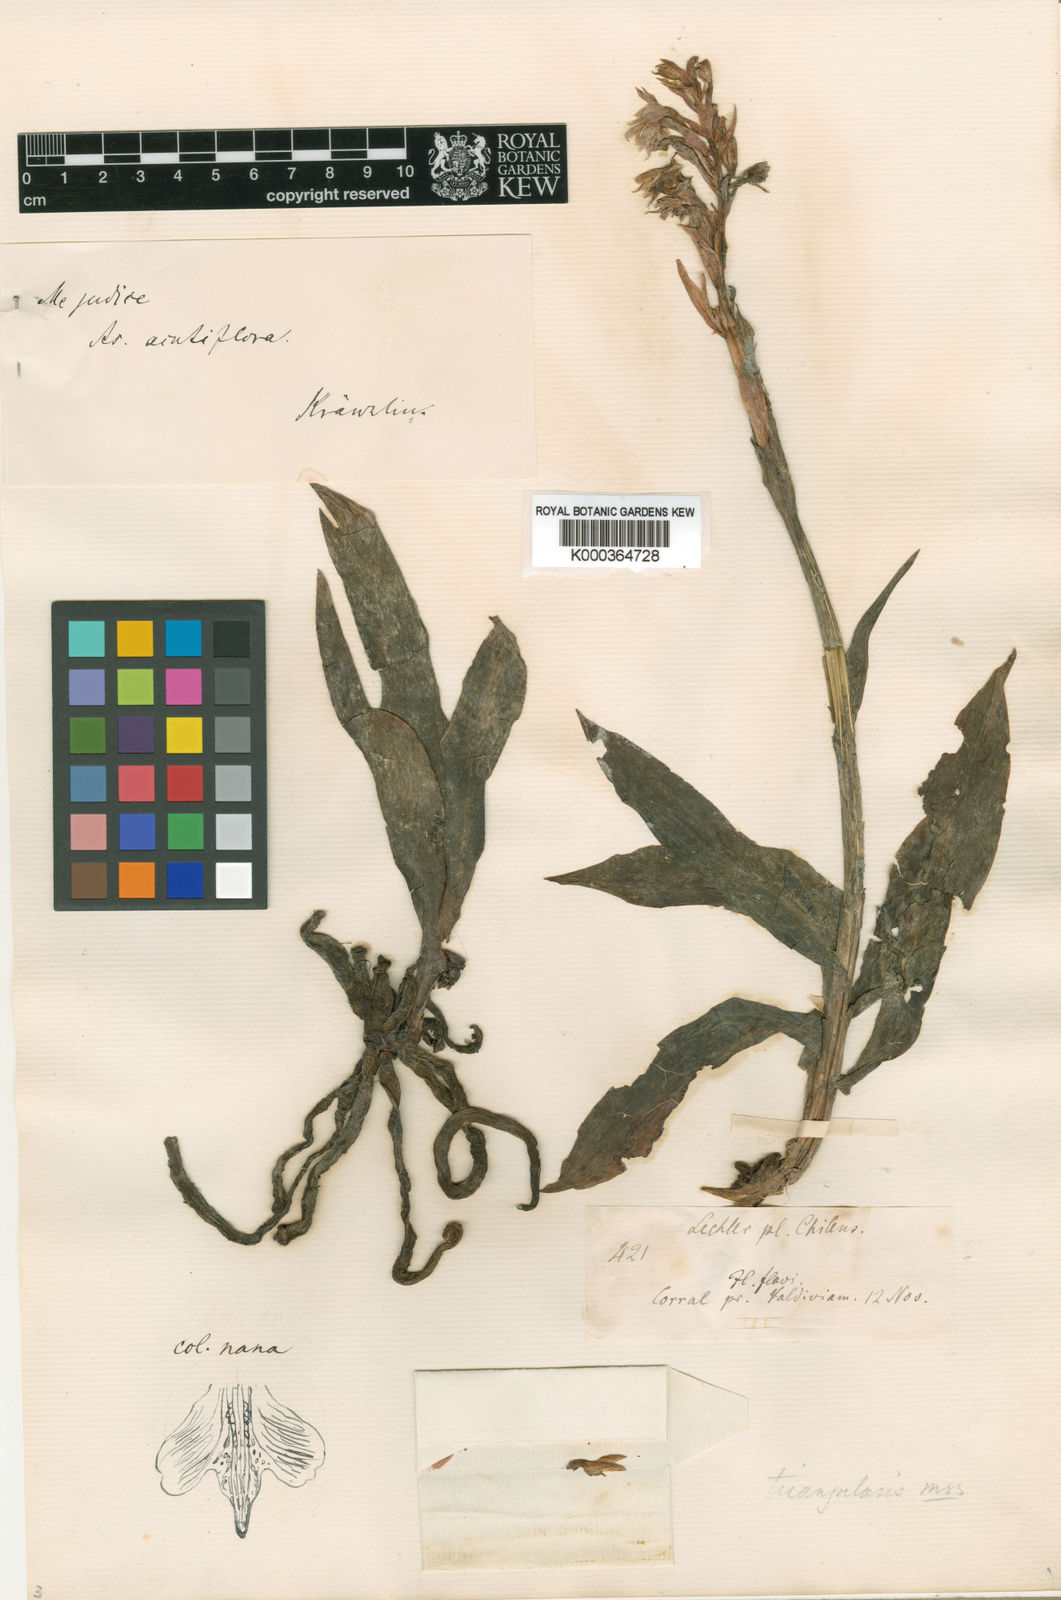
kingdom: Plantae
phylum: Tracheophyta
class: Liliopsida
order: Asparagales
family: Orchidaceae
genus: Gavilea
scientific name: Gavilea
